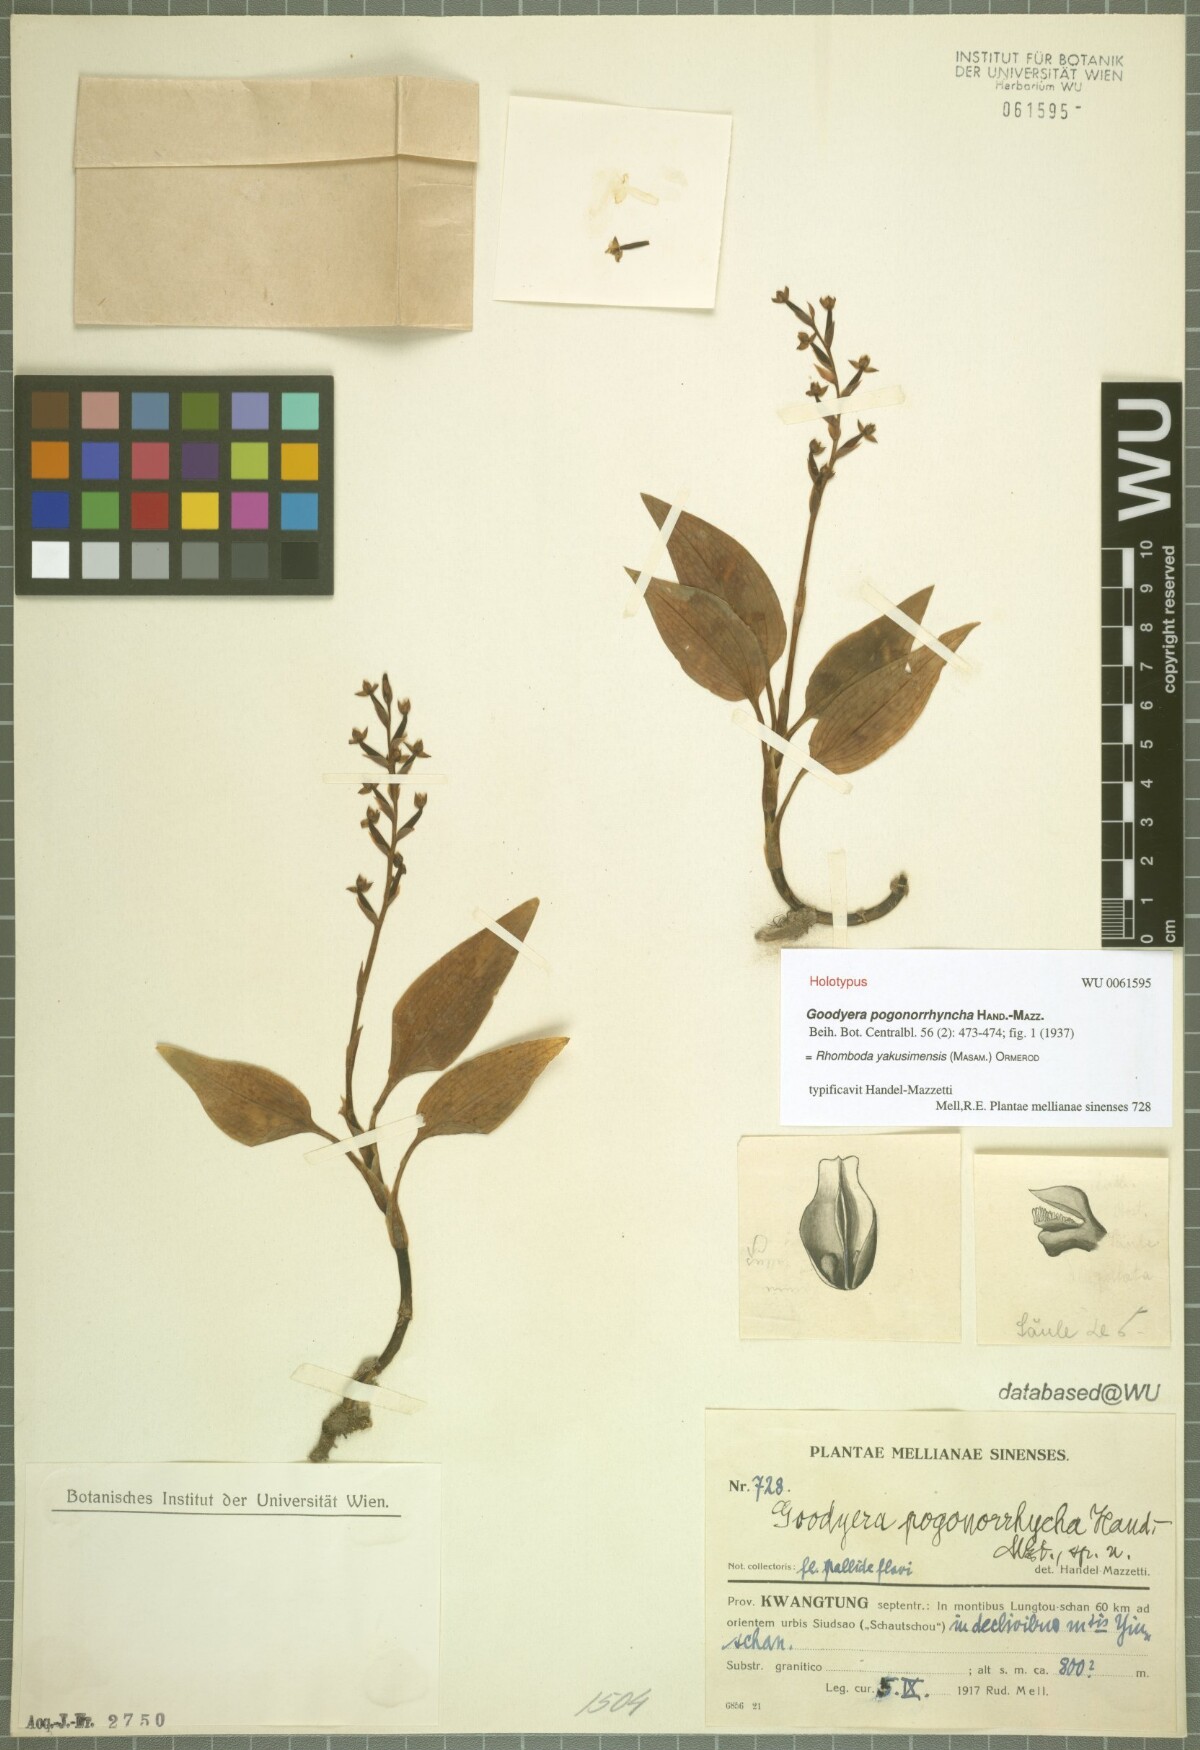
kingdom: Plantae
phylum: Tracheophyta
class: Liliopsida
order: Asparagales
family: Orchidaceae
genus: Rhomboda
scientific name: Rhomboda tokioi
